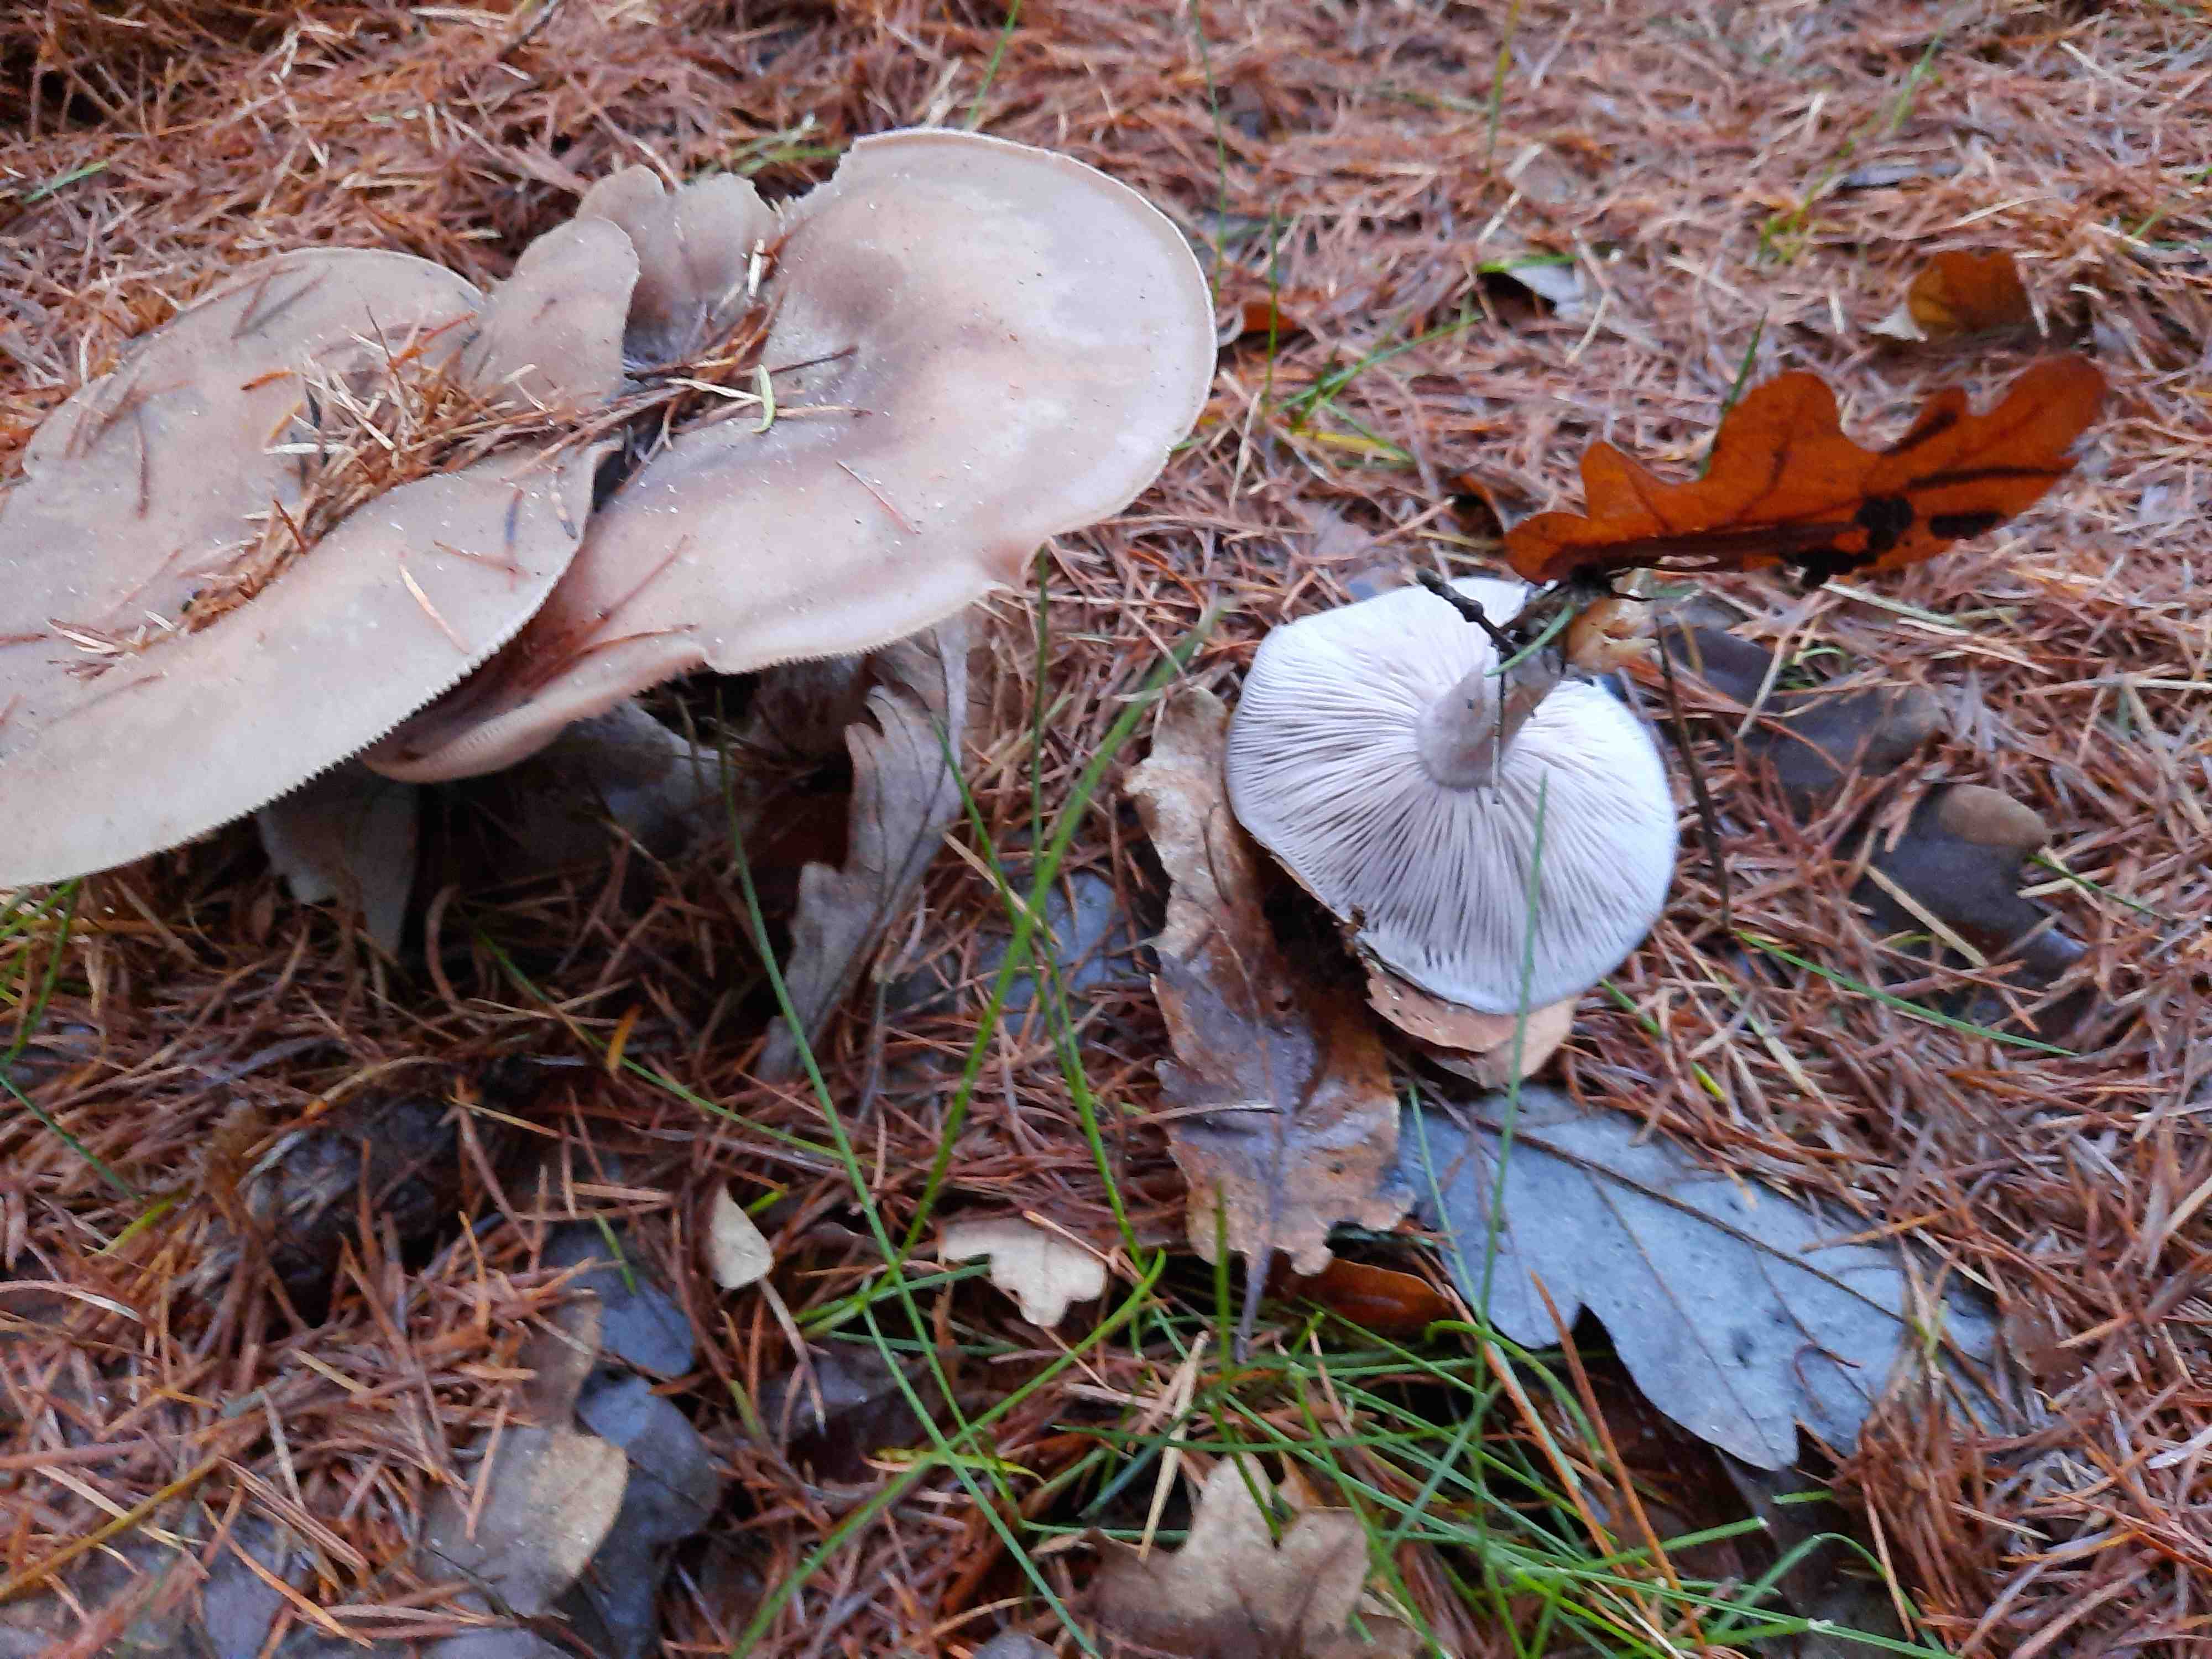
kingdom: Fungi
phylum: Basidiomycota
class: Agaricomycetes
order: Agaricales
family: Tricholomataceae
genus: Lepista
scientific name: Lepista nuda
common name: violet hekseringshat
